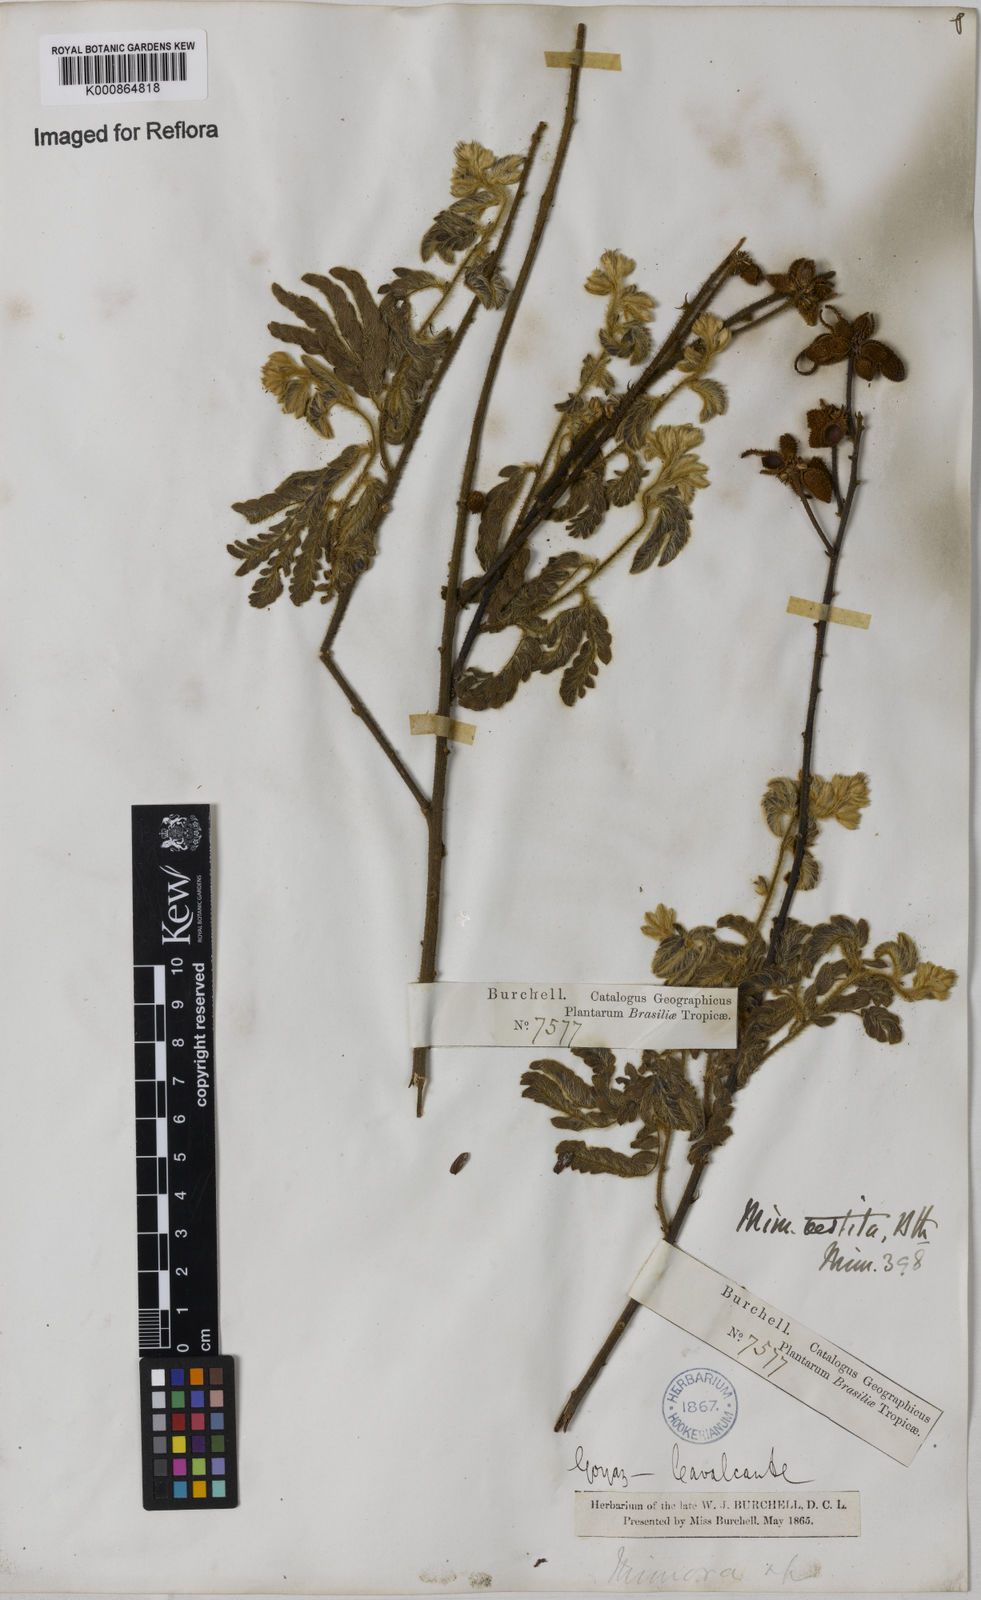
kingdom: Plantae
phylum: Tracheophyta
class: Magnoliopsida
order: Fabales
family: Fabaceae
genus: Mimosa
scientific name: Mimosa vestita
